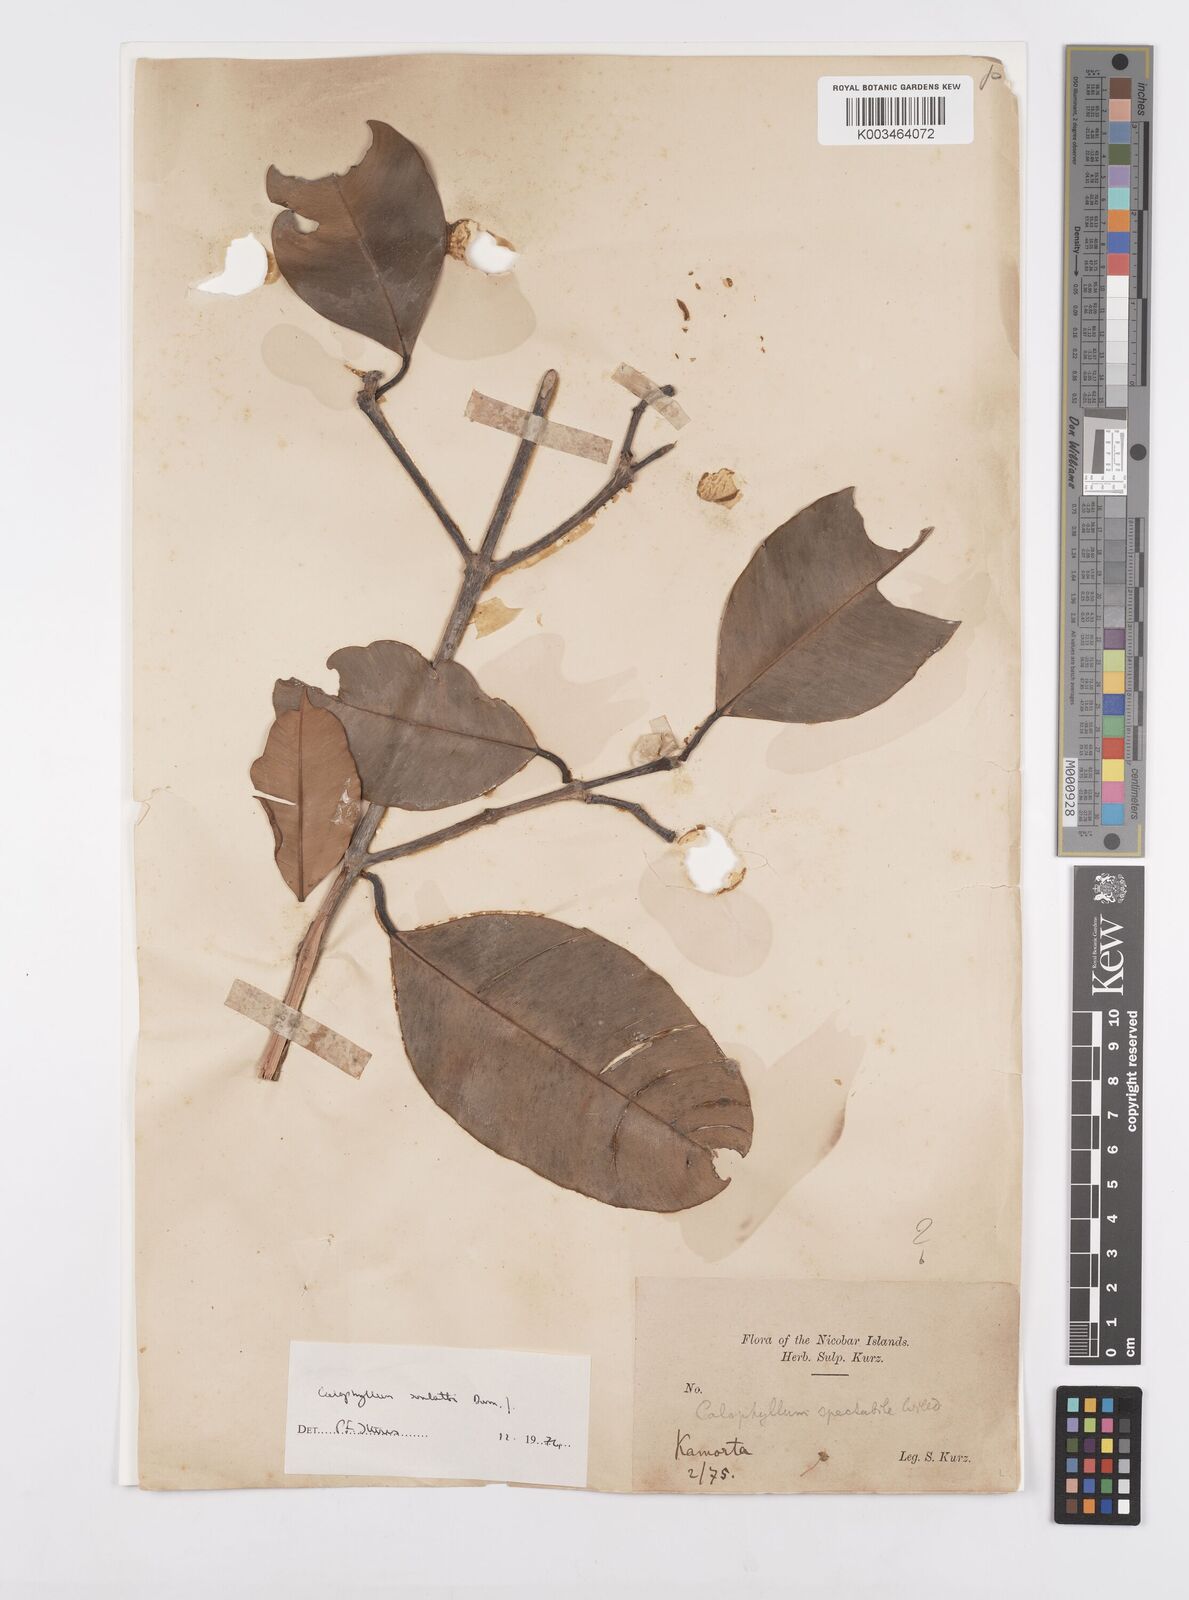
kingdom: Plantae
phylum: Tracheophyta
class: Magnoliopsida
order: Malpighiales
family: Calophyllaceae
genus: Calophyllum
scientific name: Calophyllum soulattri
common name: Bitangoor boonot
